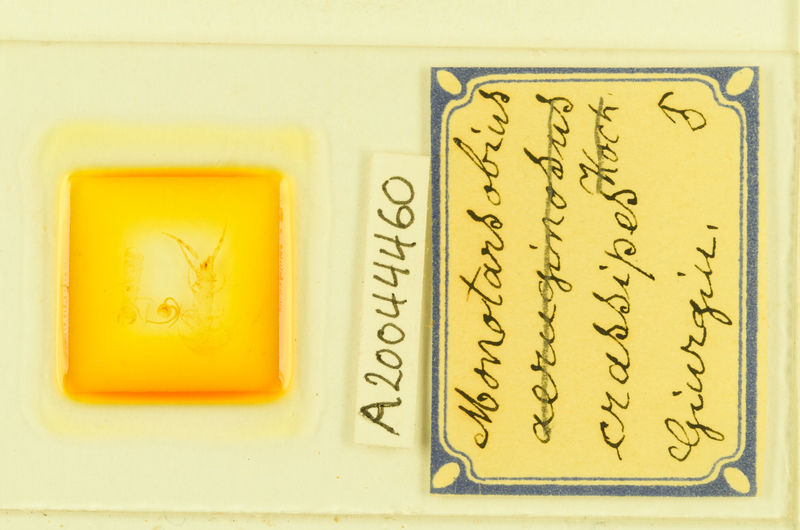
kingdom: Animalia
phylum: Arthropoda
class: Chilopoda
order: Lithobiomorpha
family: Lithobiidae
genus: Lithobius
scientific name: Lithobius crassipes
